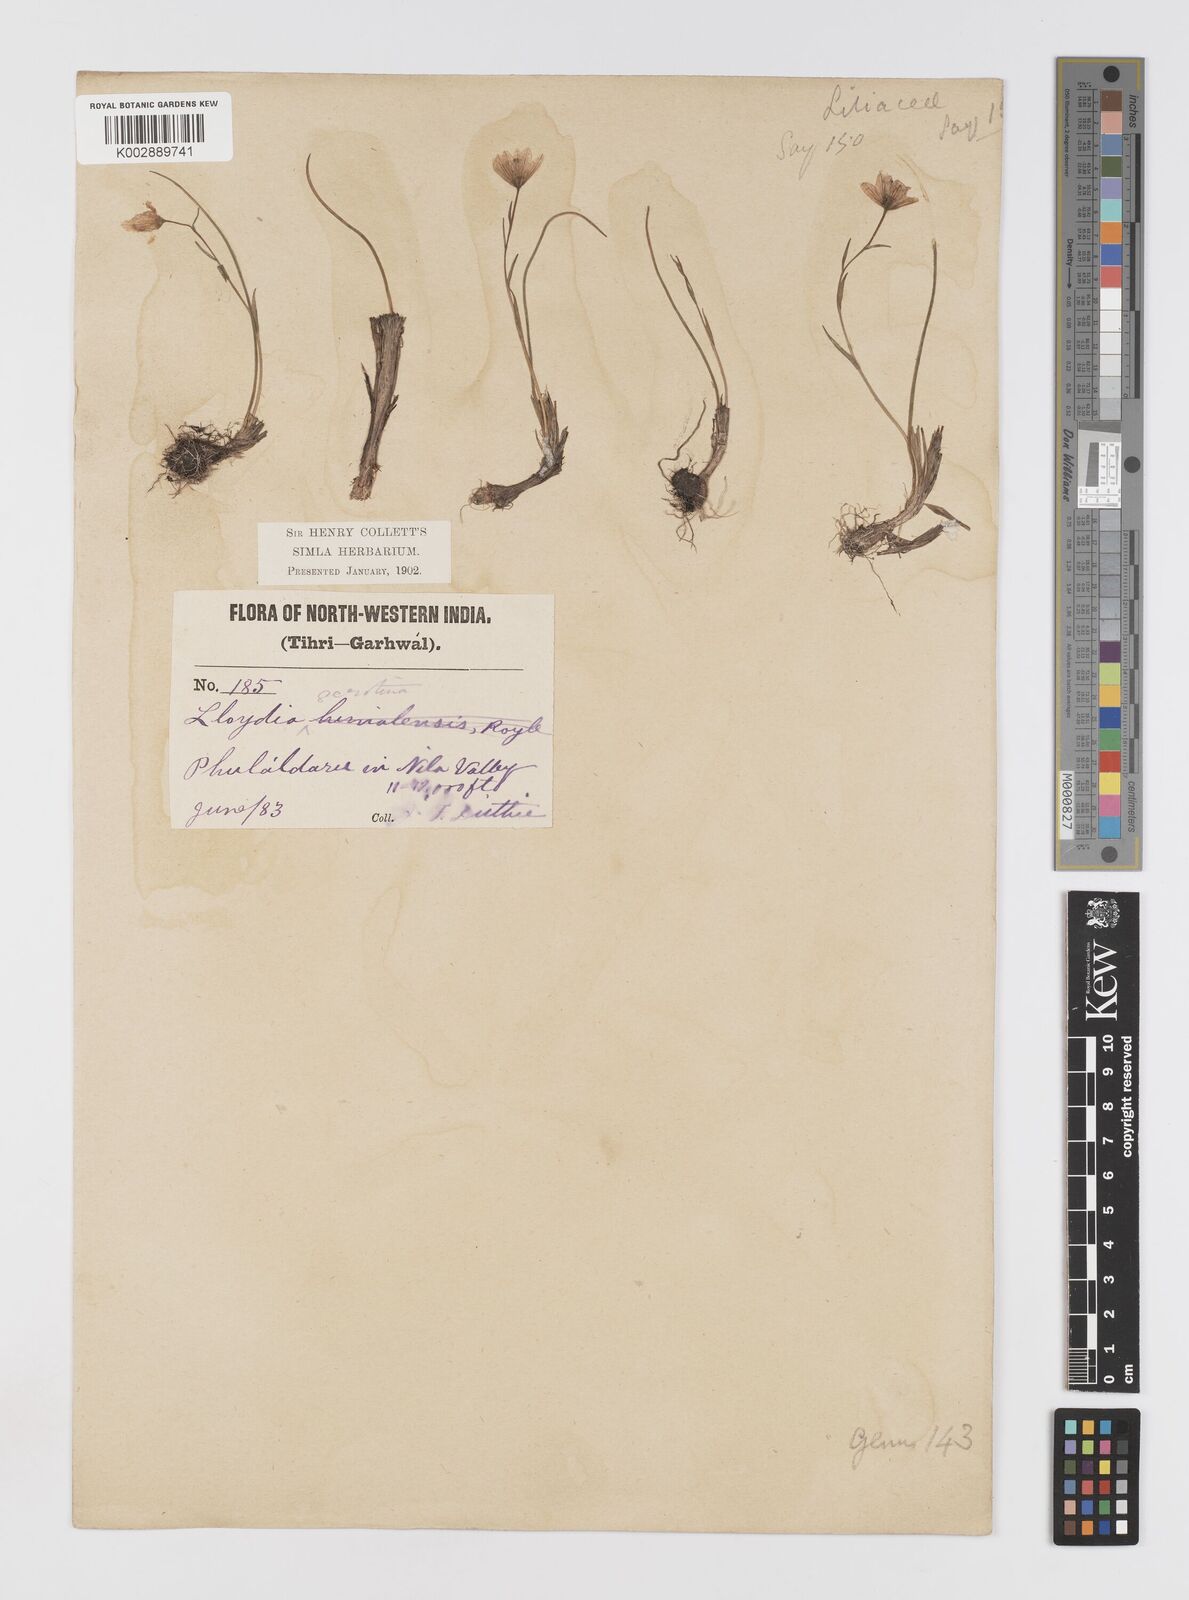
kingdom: Plantae
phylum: Tracheophyta
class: Liliopsida
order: Liliales
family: Liliaceae
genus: Gagea
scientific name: Gagea serotina
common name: Snowdon lily
